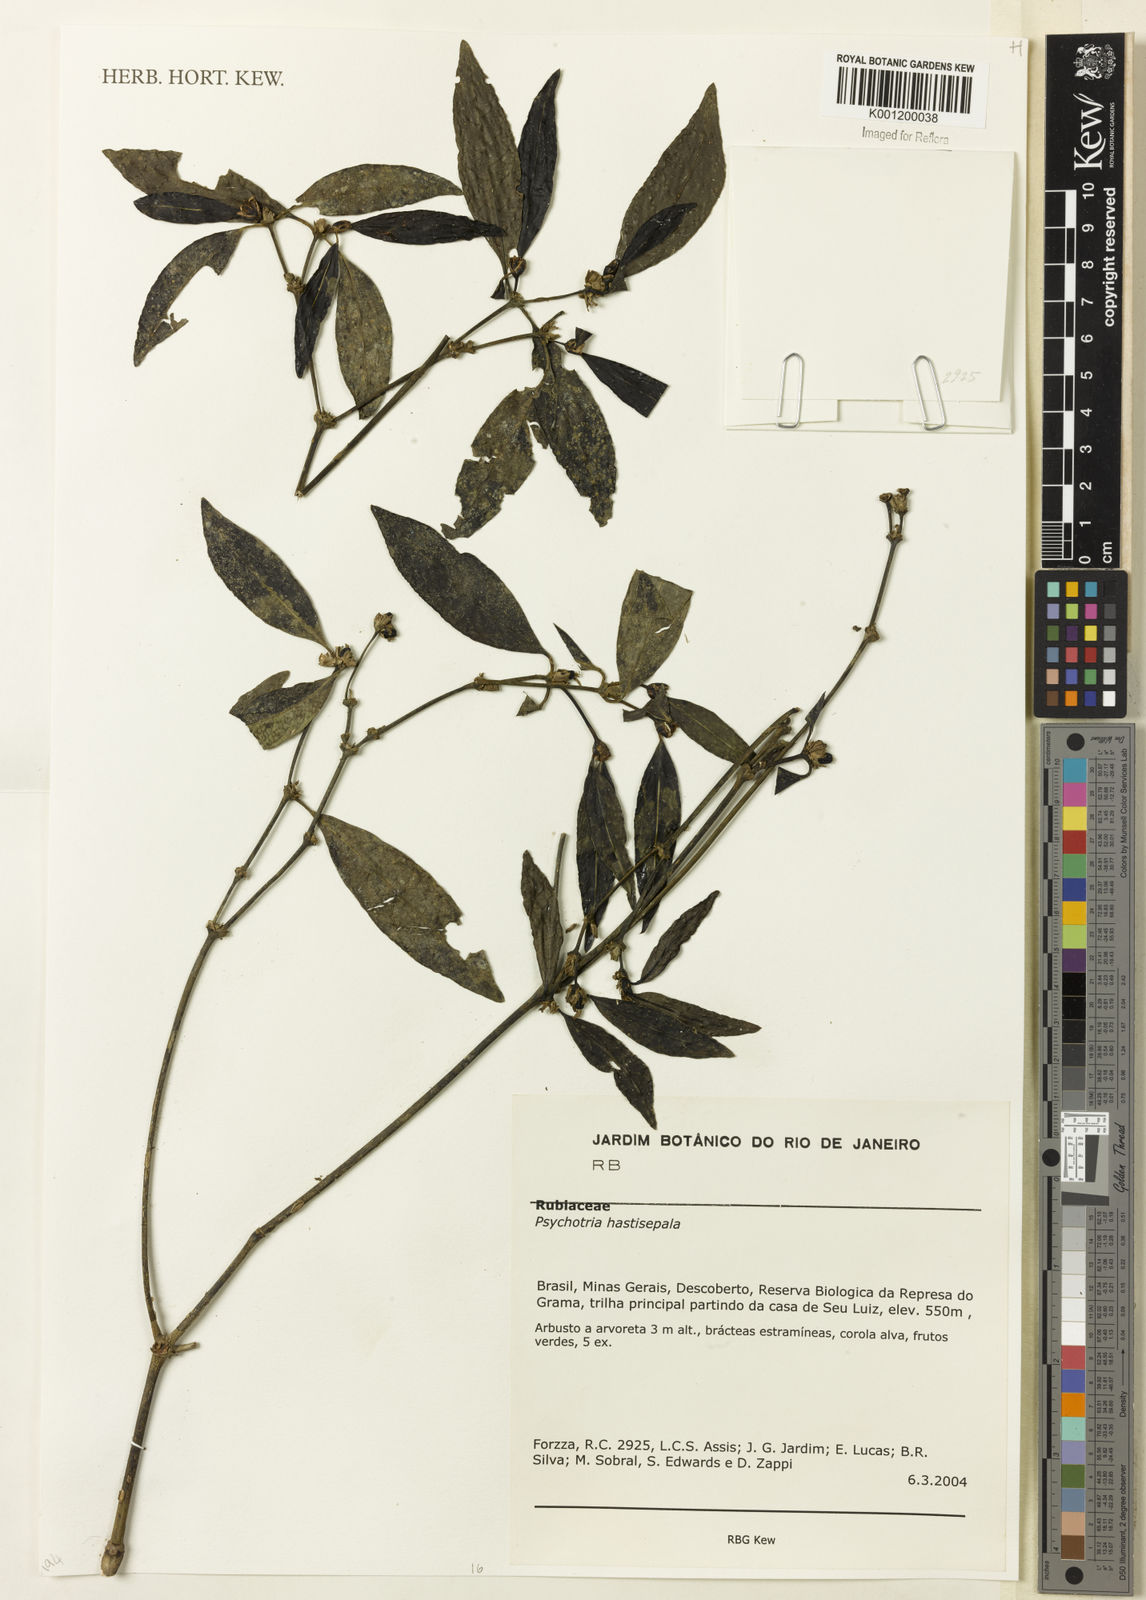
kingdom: Plantae
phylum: Tracheophyta
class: Magnoliopsida
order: Gentianales
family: Rubiaceae
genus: Psychotria
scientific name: Psychotria
